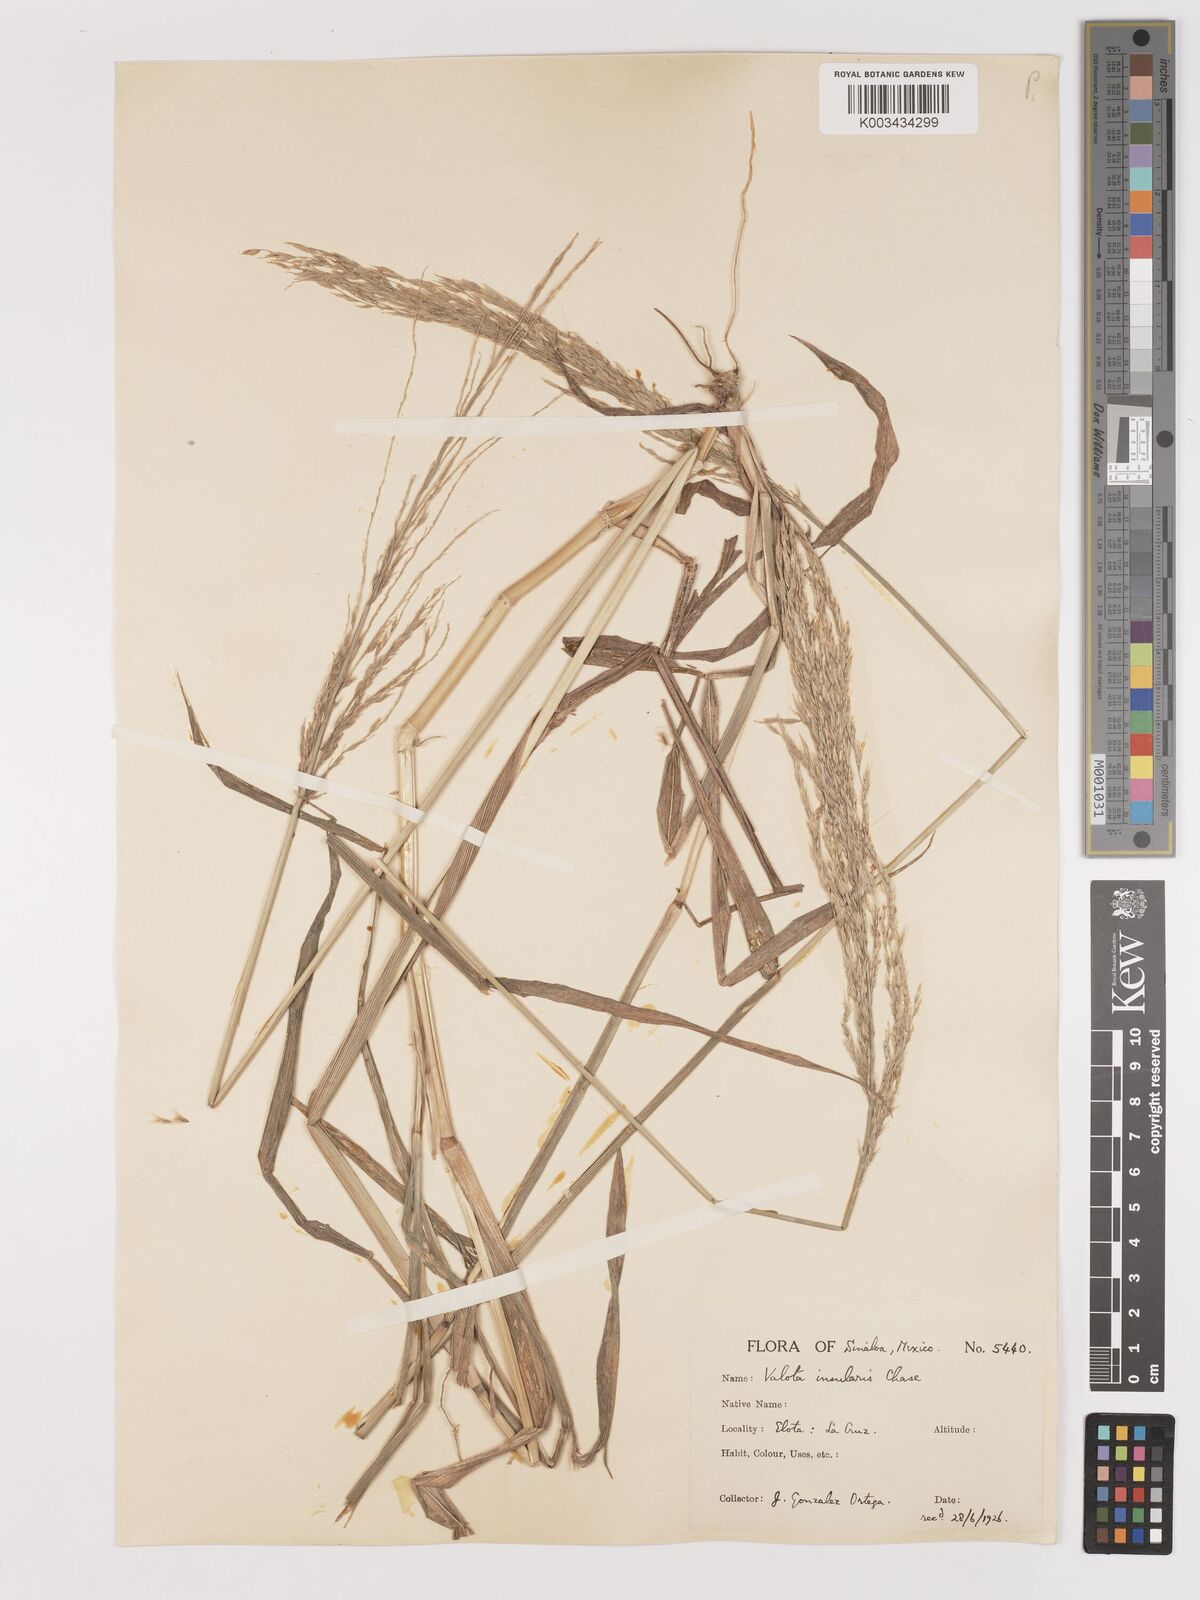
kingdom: Plantae
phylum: Tracheophyta
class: Liliopsida
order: Poales
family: Poaceae
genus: Digitaria
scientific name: Digitaria insularis
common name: Sourgrass
